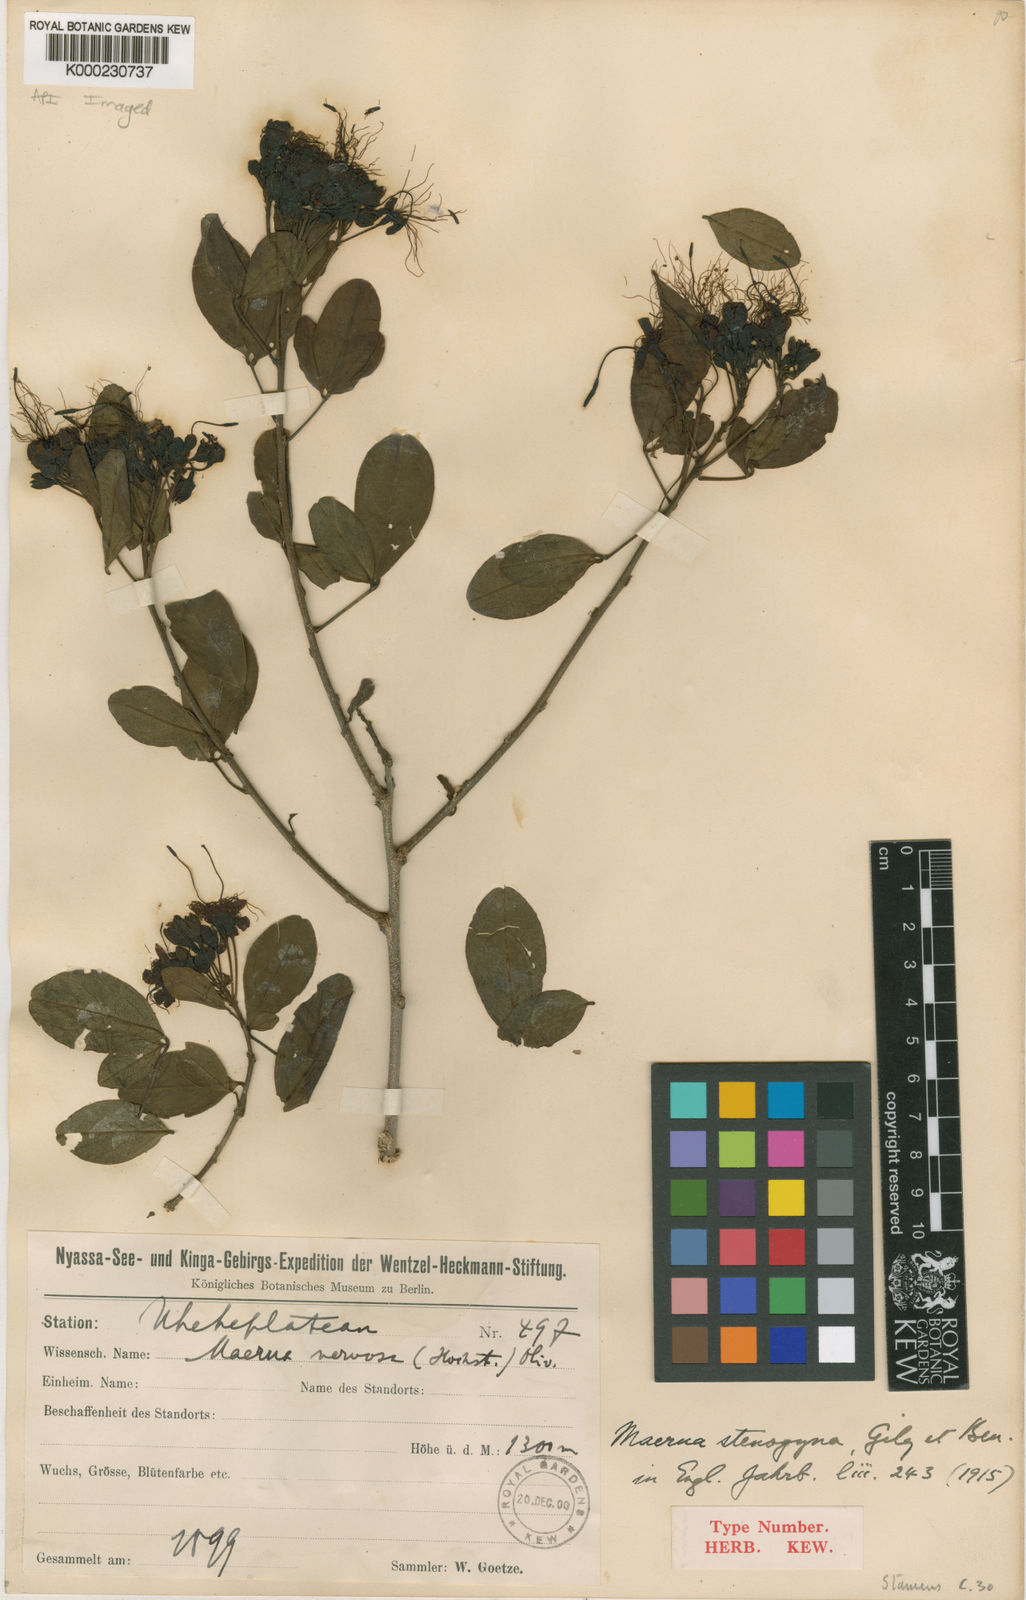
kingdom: Plantae
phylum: Tracheophyta
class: Magnoliopsida
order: Brassicales
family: Capparaceae
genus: Maerua
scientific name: Maerua
